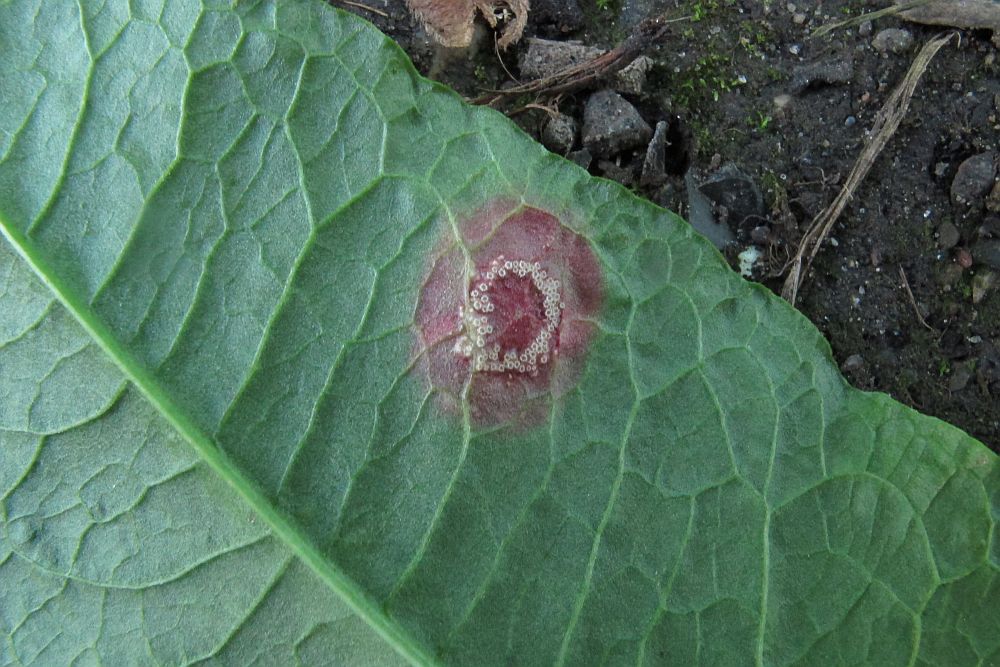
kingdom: Fungi
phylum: Basidiomycota
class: Pucciniomycetes
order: Pucciniales
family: Pucciniaceae
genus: Puccinia
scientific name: Puccinia phragmitis
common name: tagrør-tvecellerust
